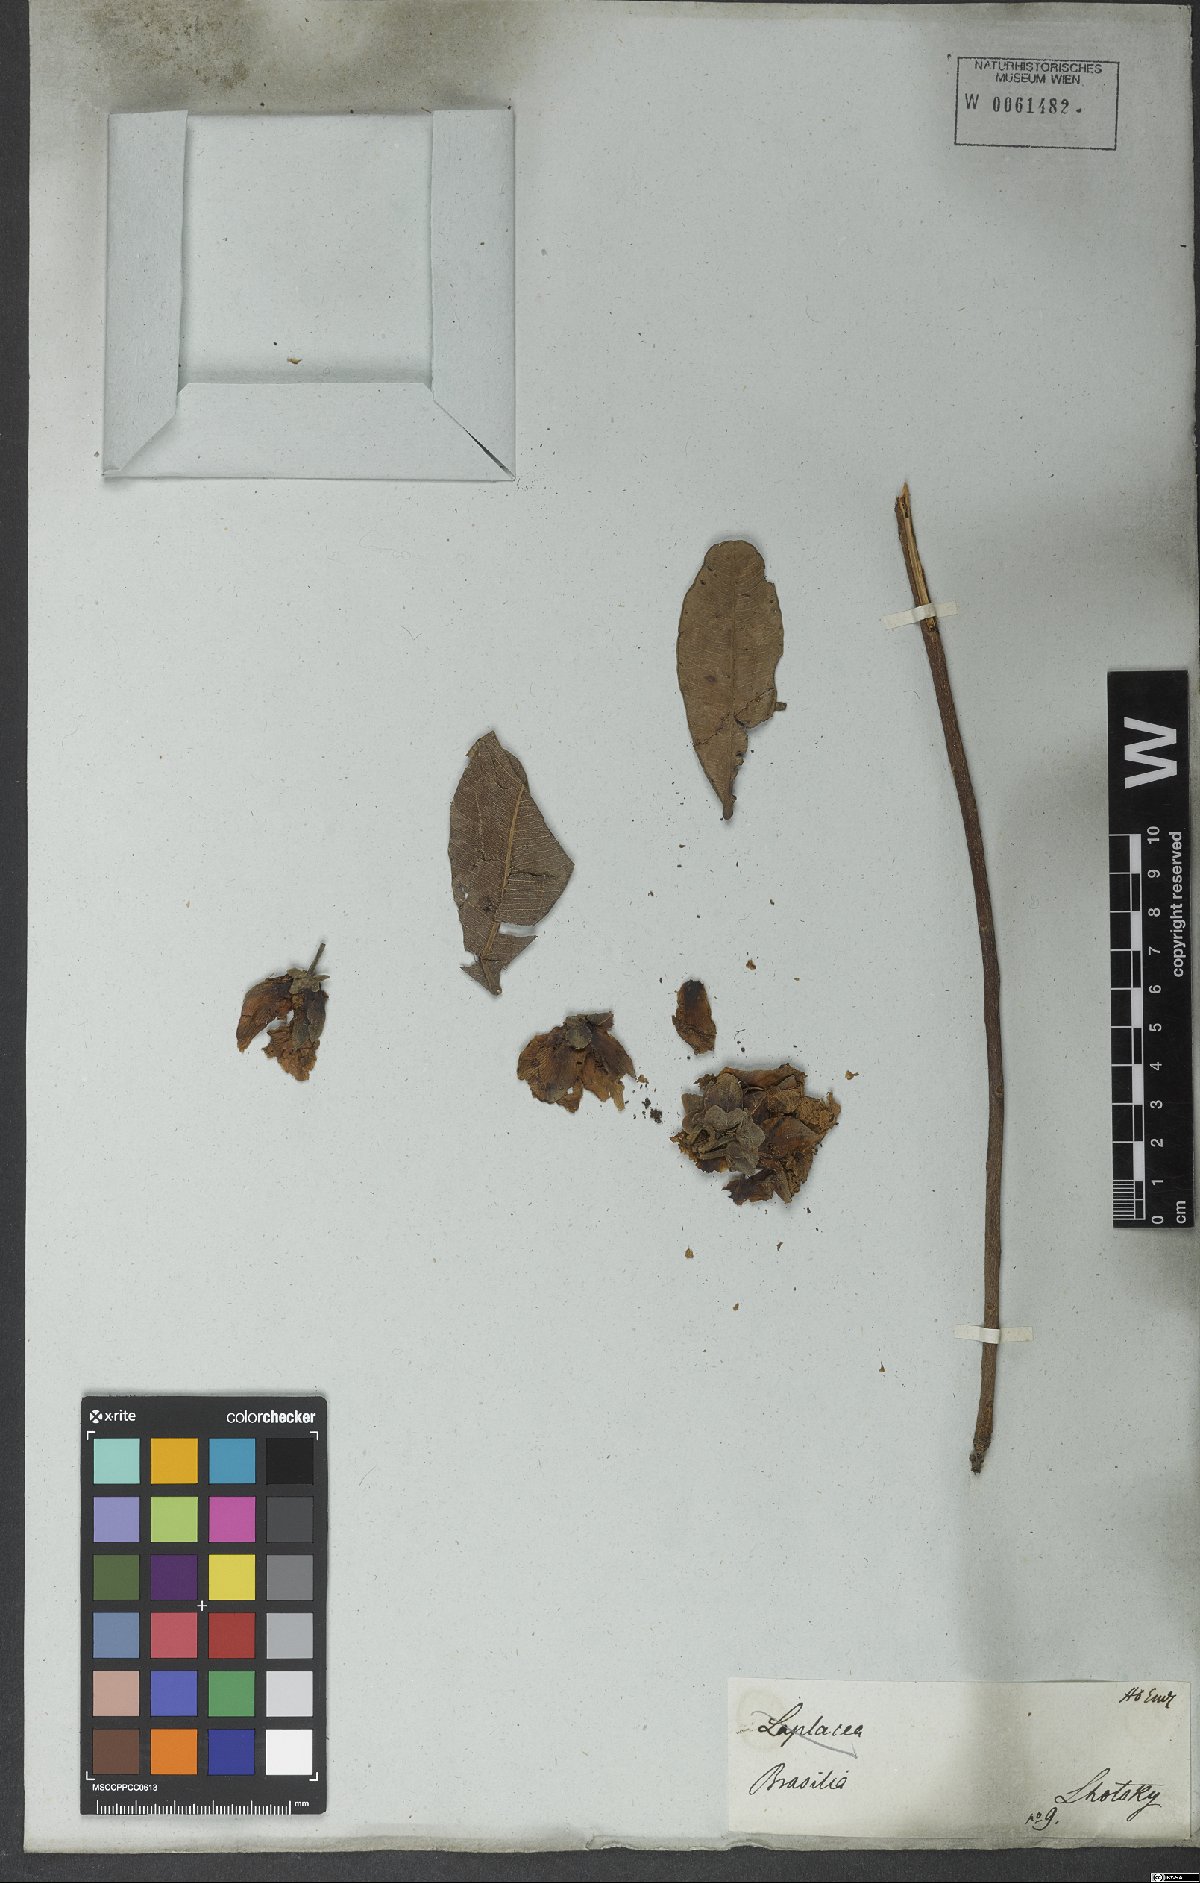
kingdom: Plantae
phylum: Tracheophyta
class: Magnoliopsida
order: Malpighiales
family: Calophyllaceae
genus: Kielmeyera
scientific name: Kielmeyera
